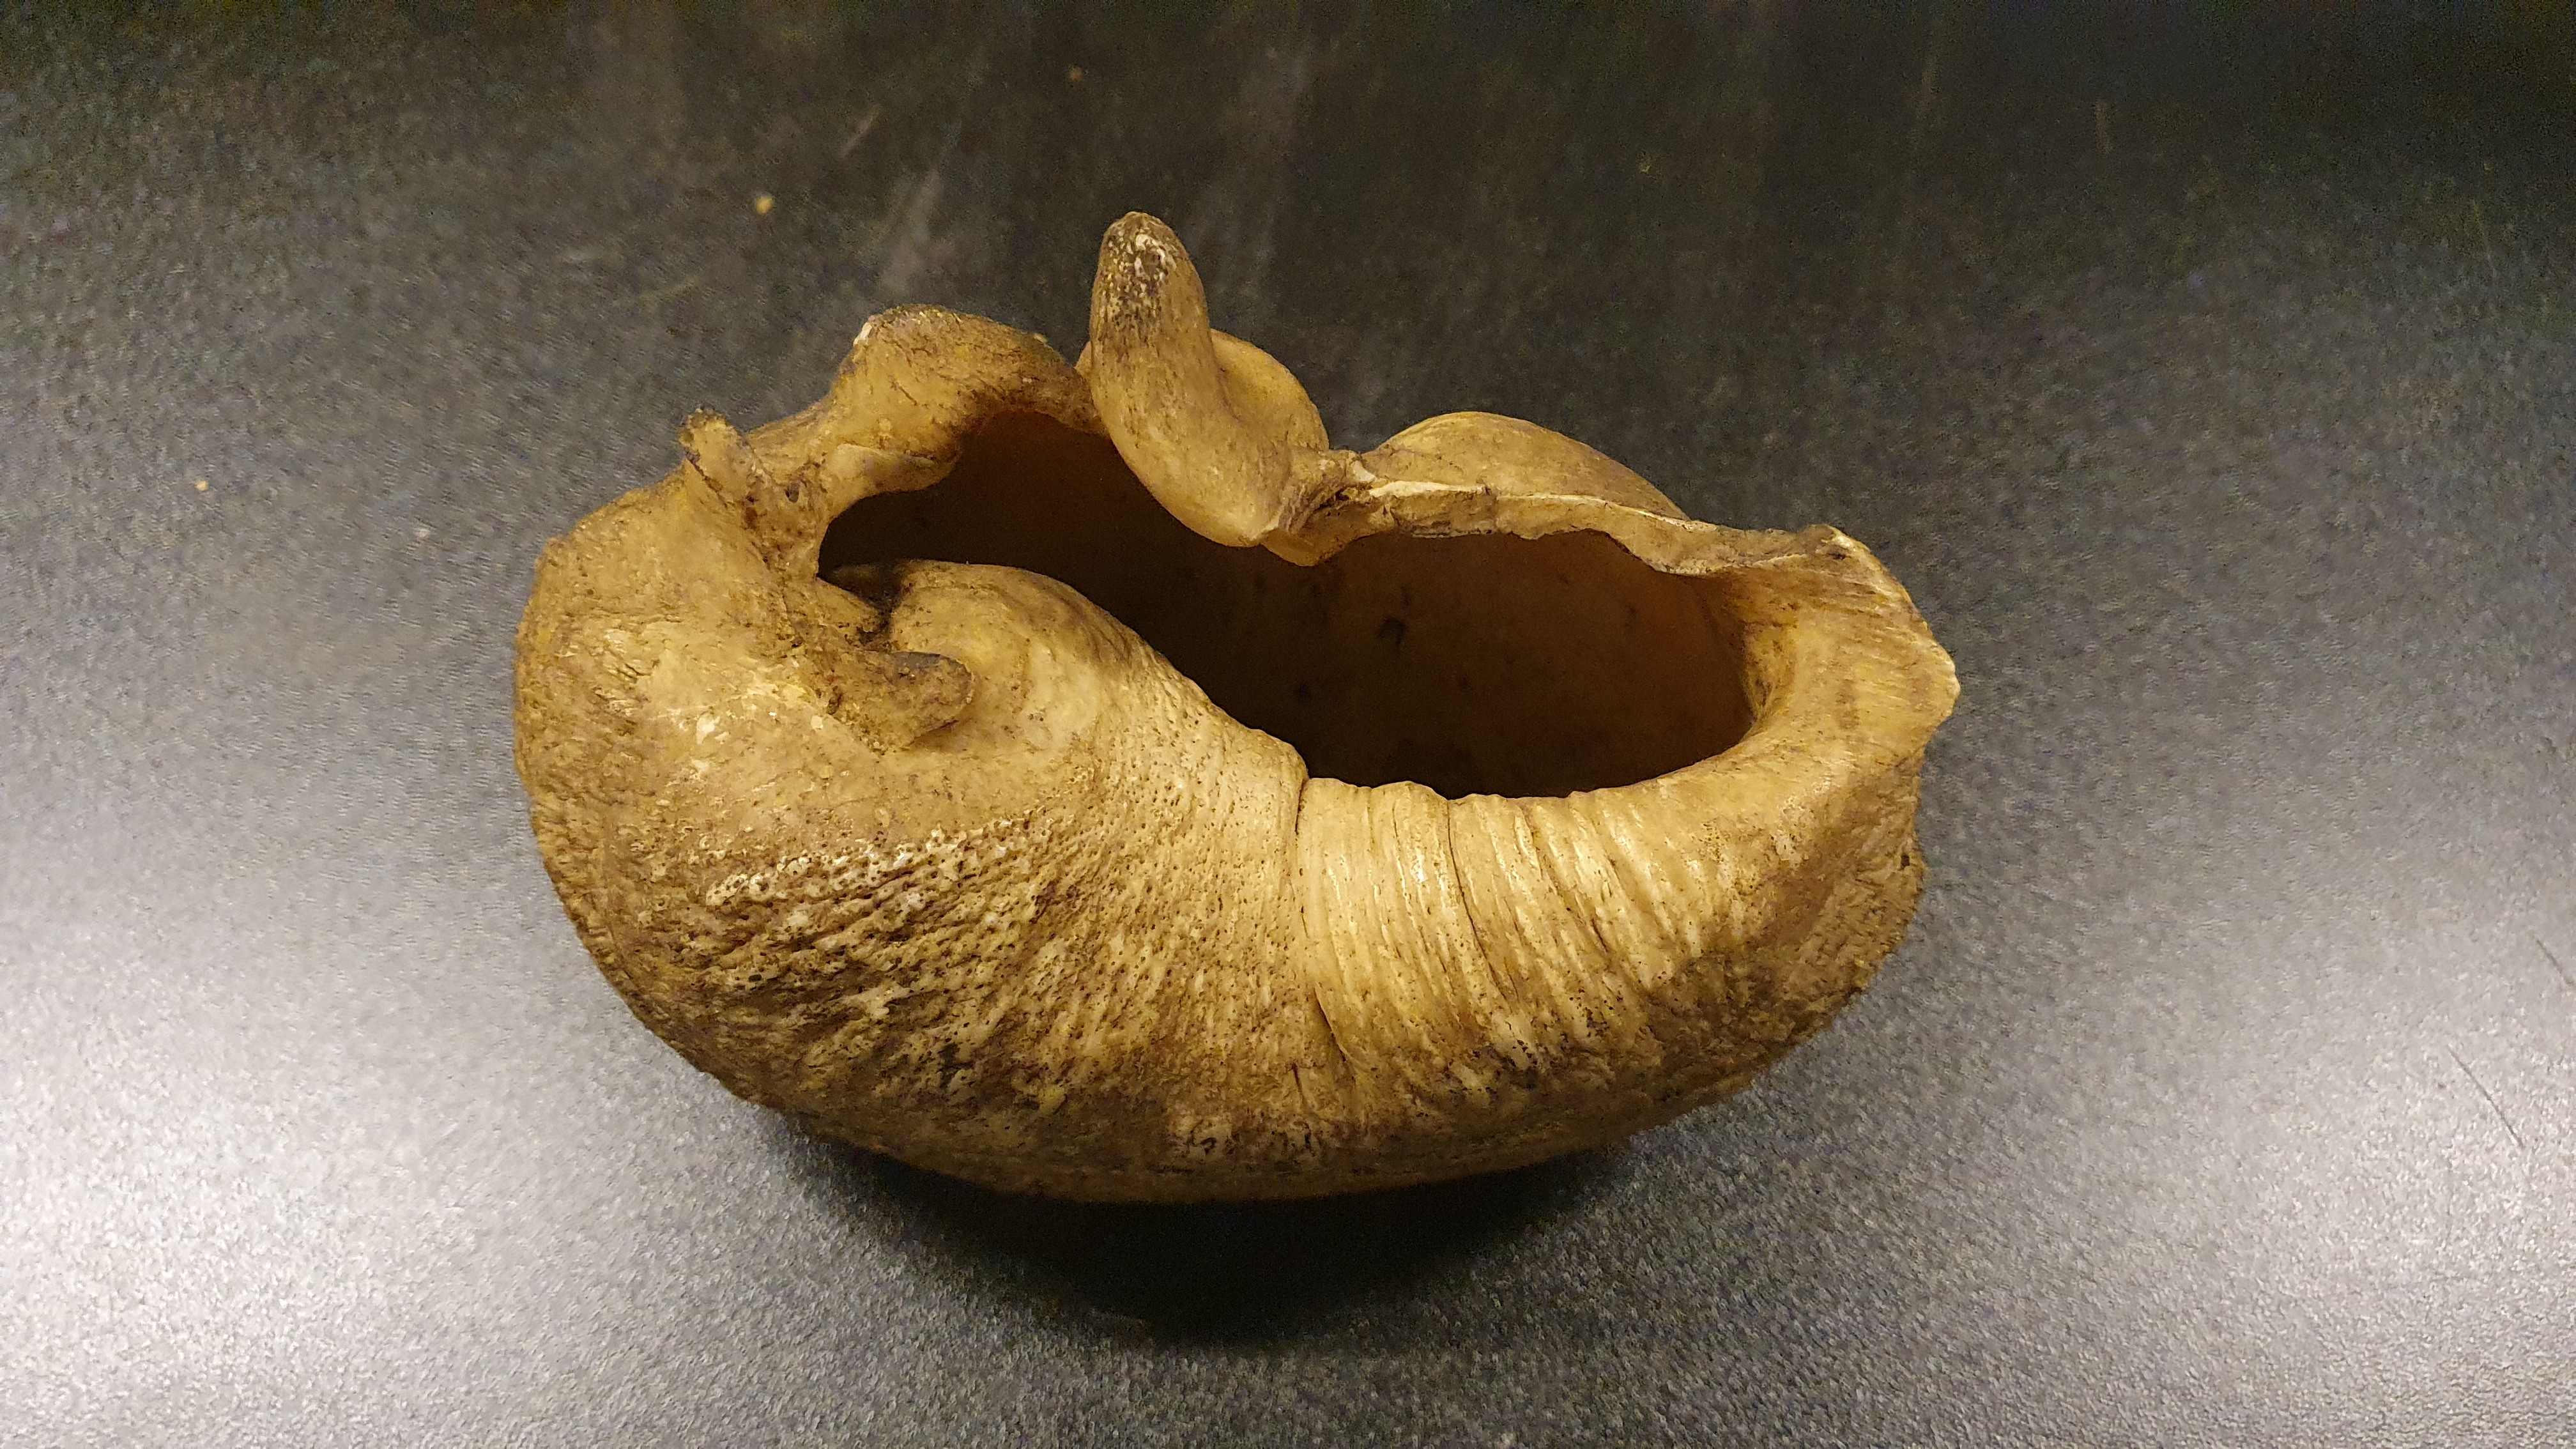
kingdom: Animalia
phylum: Chordata
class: Mammalia
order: Cetacea
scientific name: Cetacea
